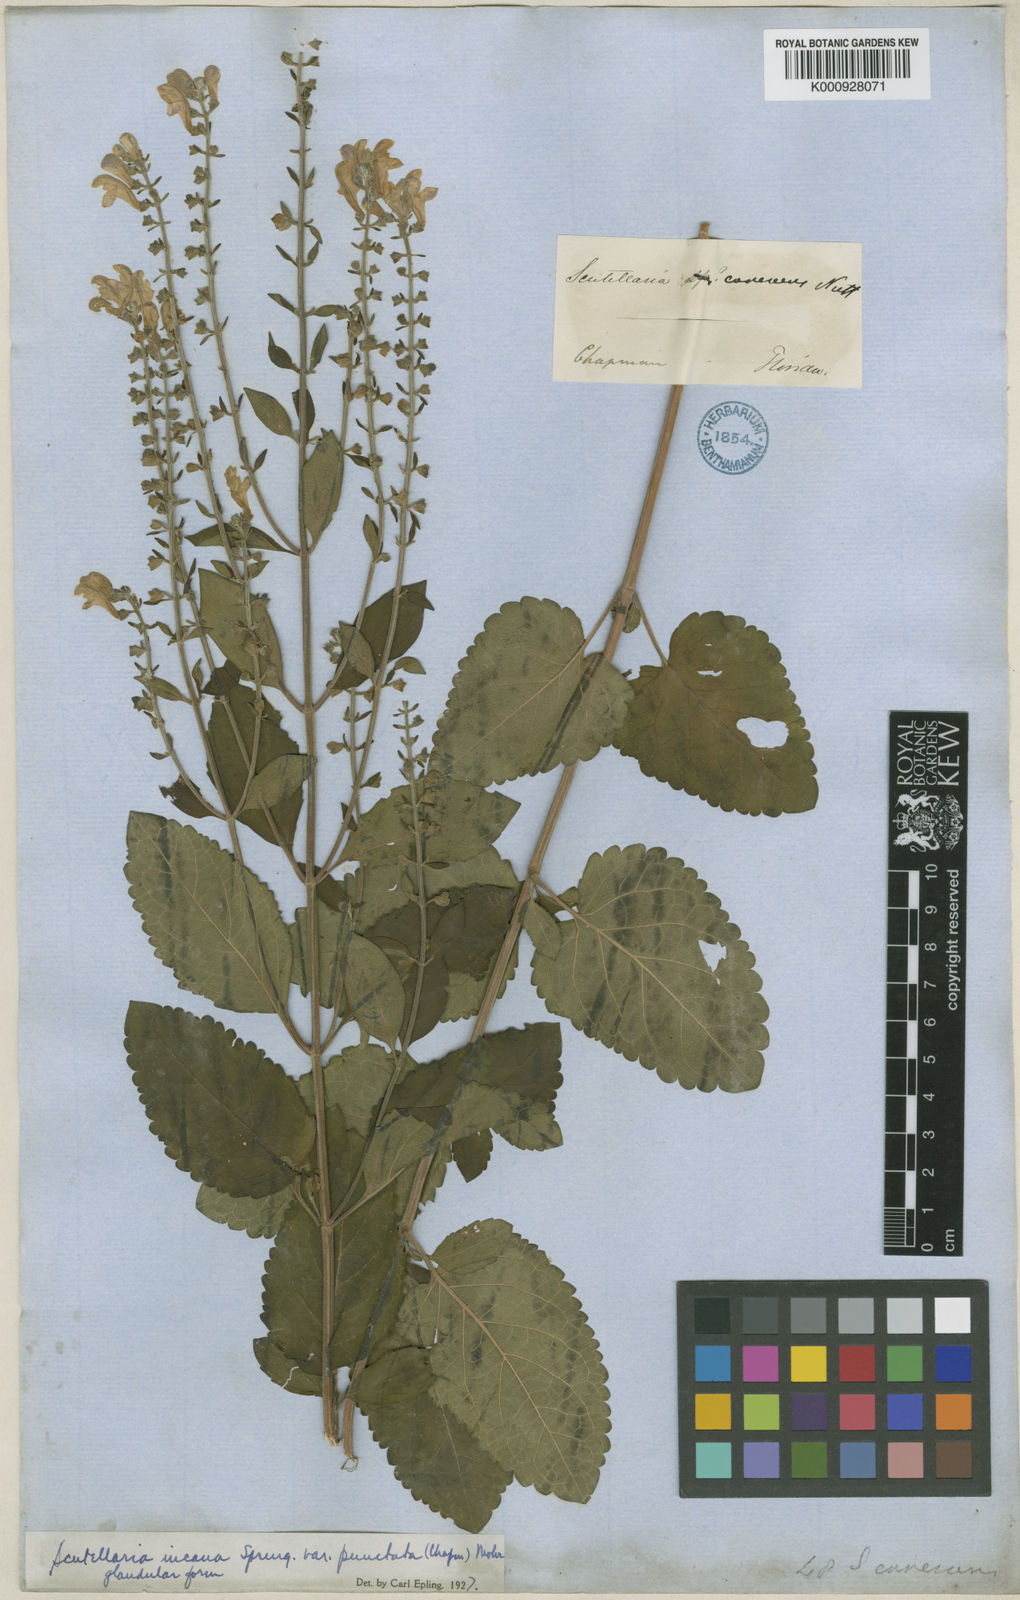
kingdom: Plantae
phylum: Tracheophyta
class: Magnoliopsida
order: Lamiales
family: Lamiaceae
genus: Scutellaria
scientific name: Scutellaria incana
